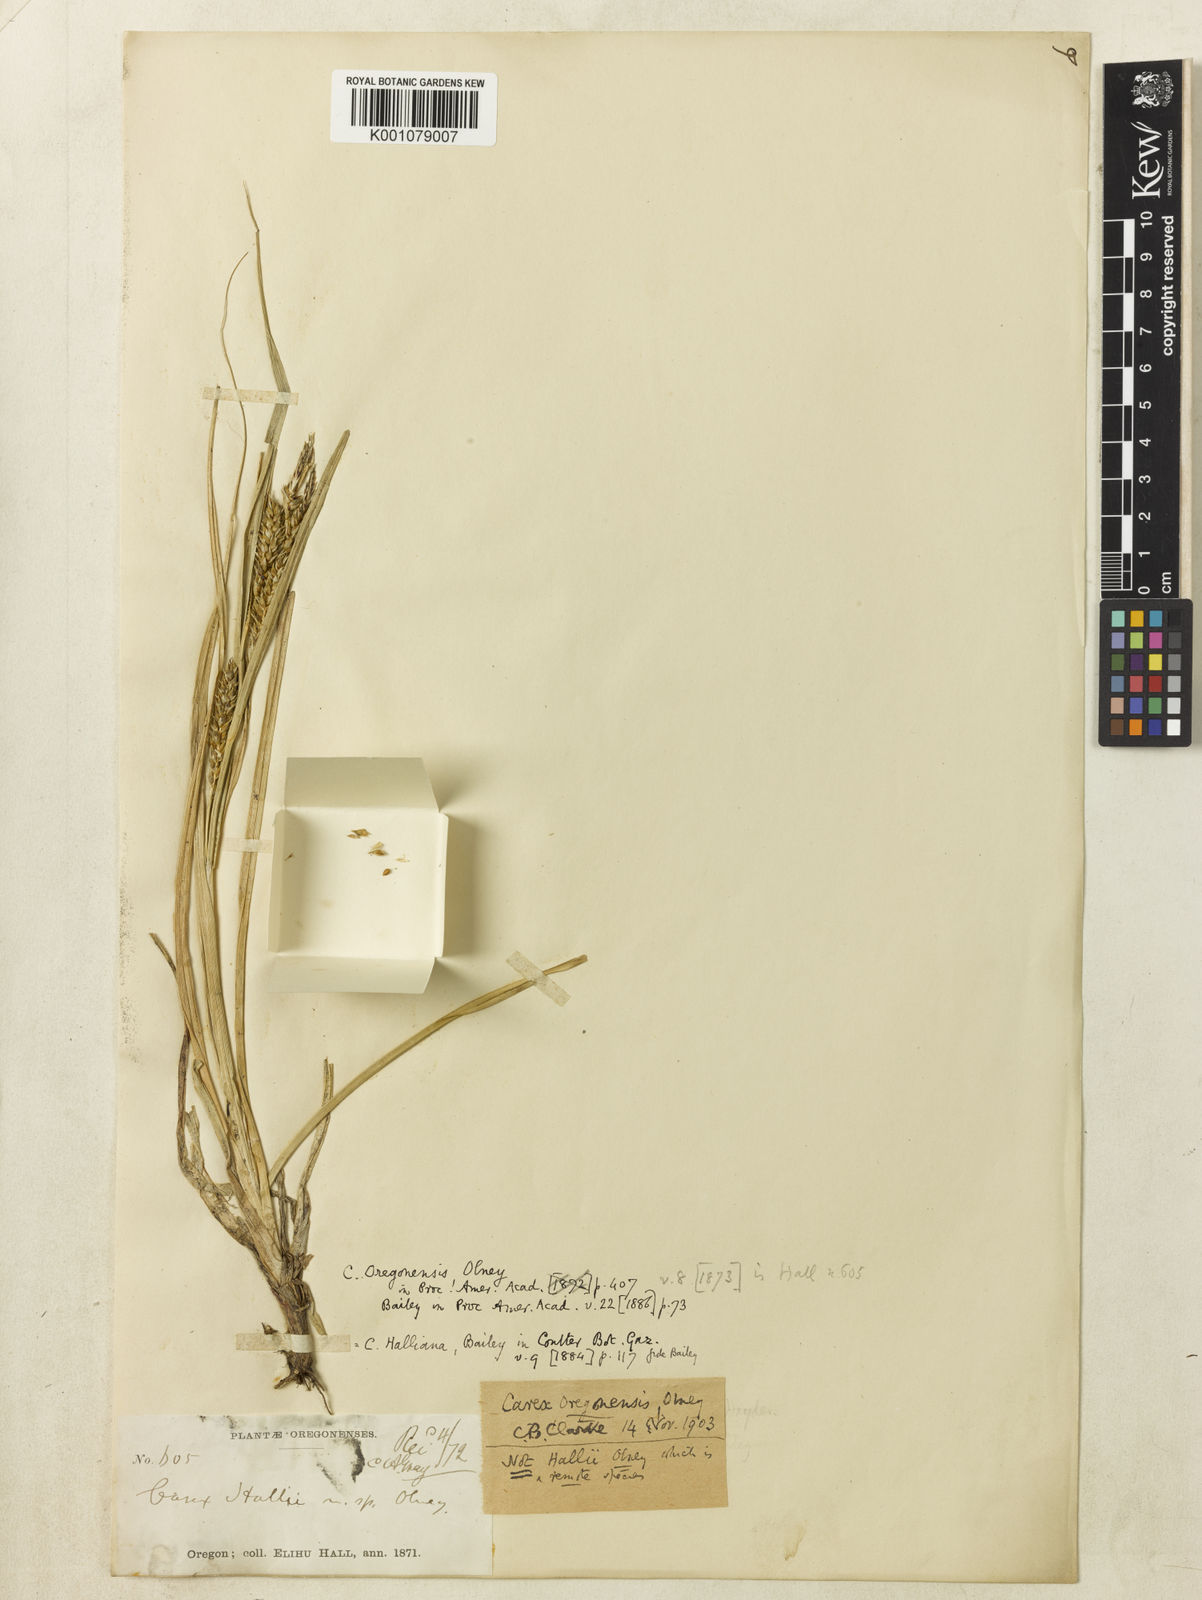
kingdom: Plantae
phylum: Tracheophyta
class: Liliopsida
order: Poales
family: Cyperaceae
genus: Carex
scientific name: Carex halliana
